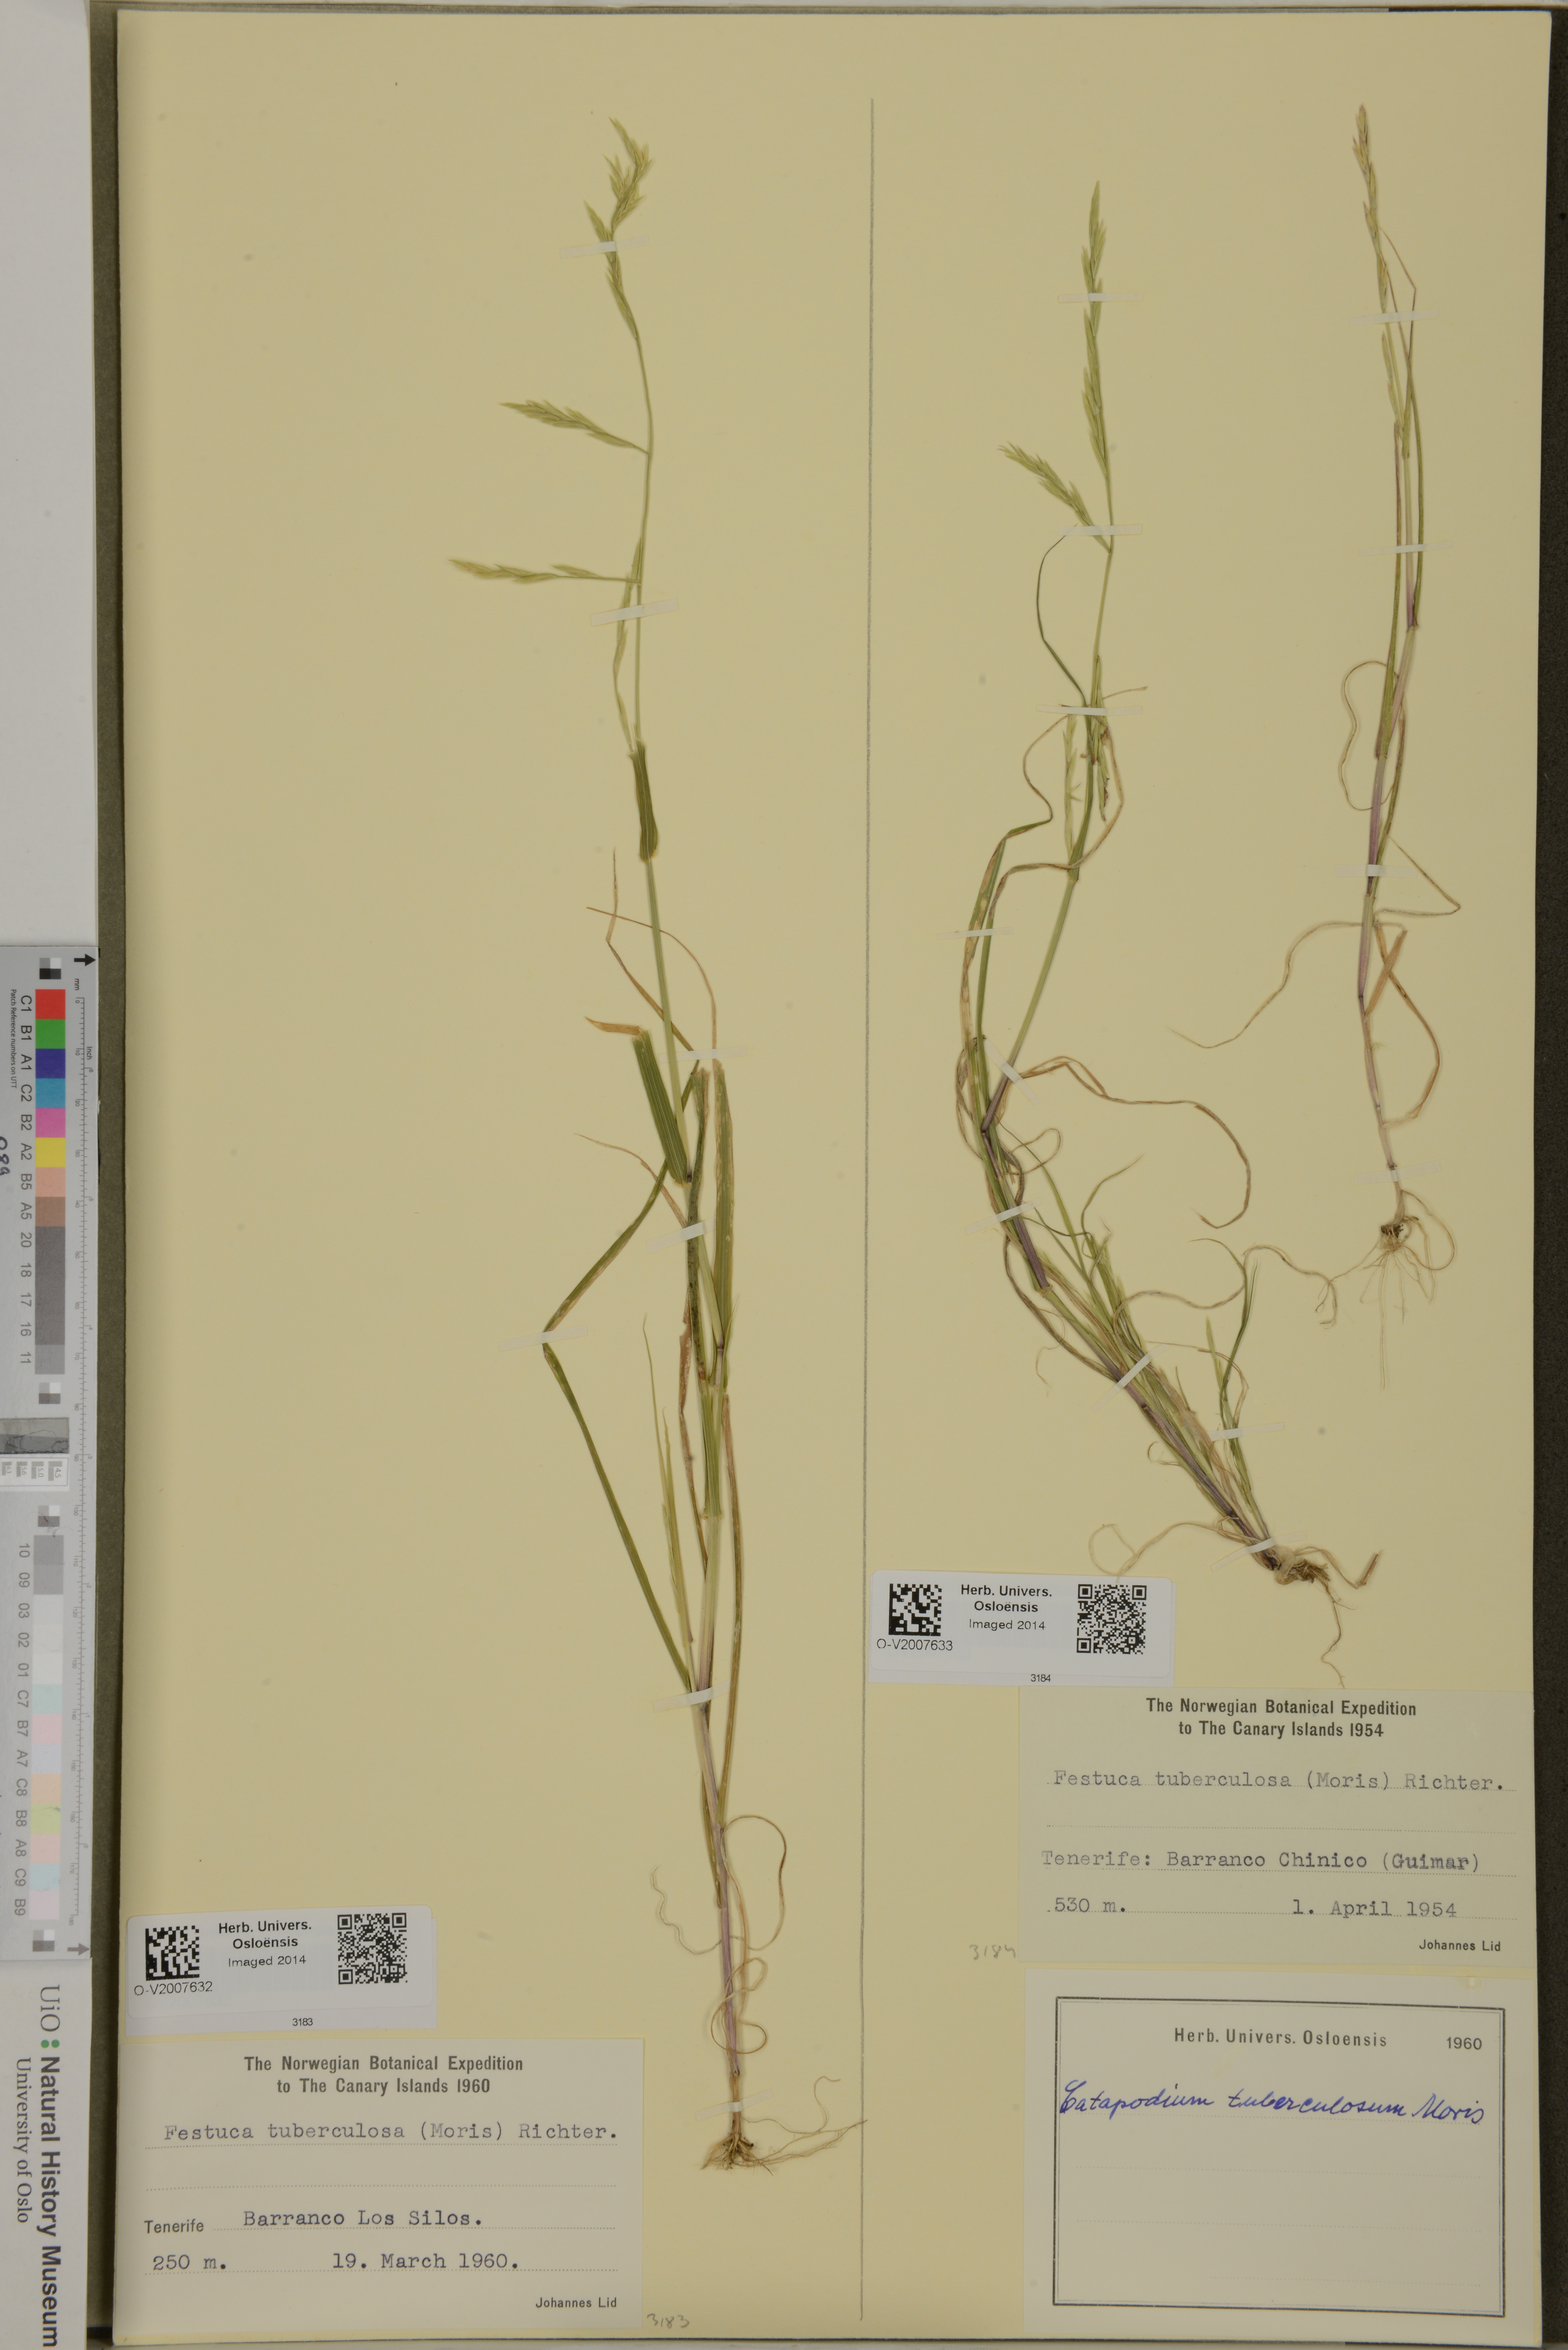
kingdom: Plantae
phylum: Tracheophyta
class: Liliopsida
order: Poales
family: Poaceae
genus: Festuca
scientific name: Festuca tuberculosa
